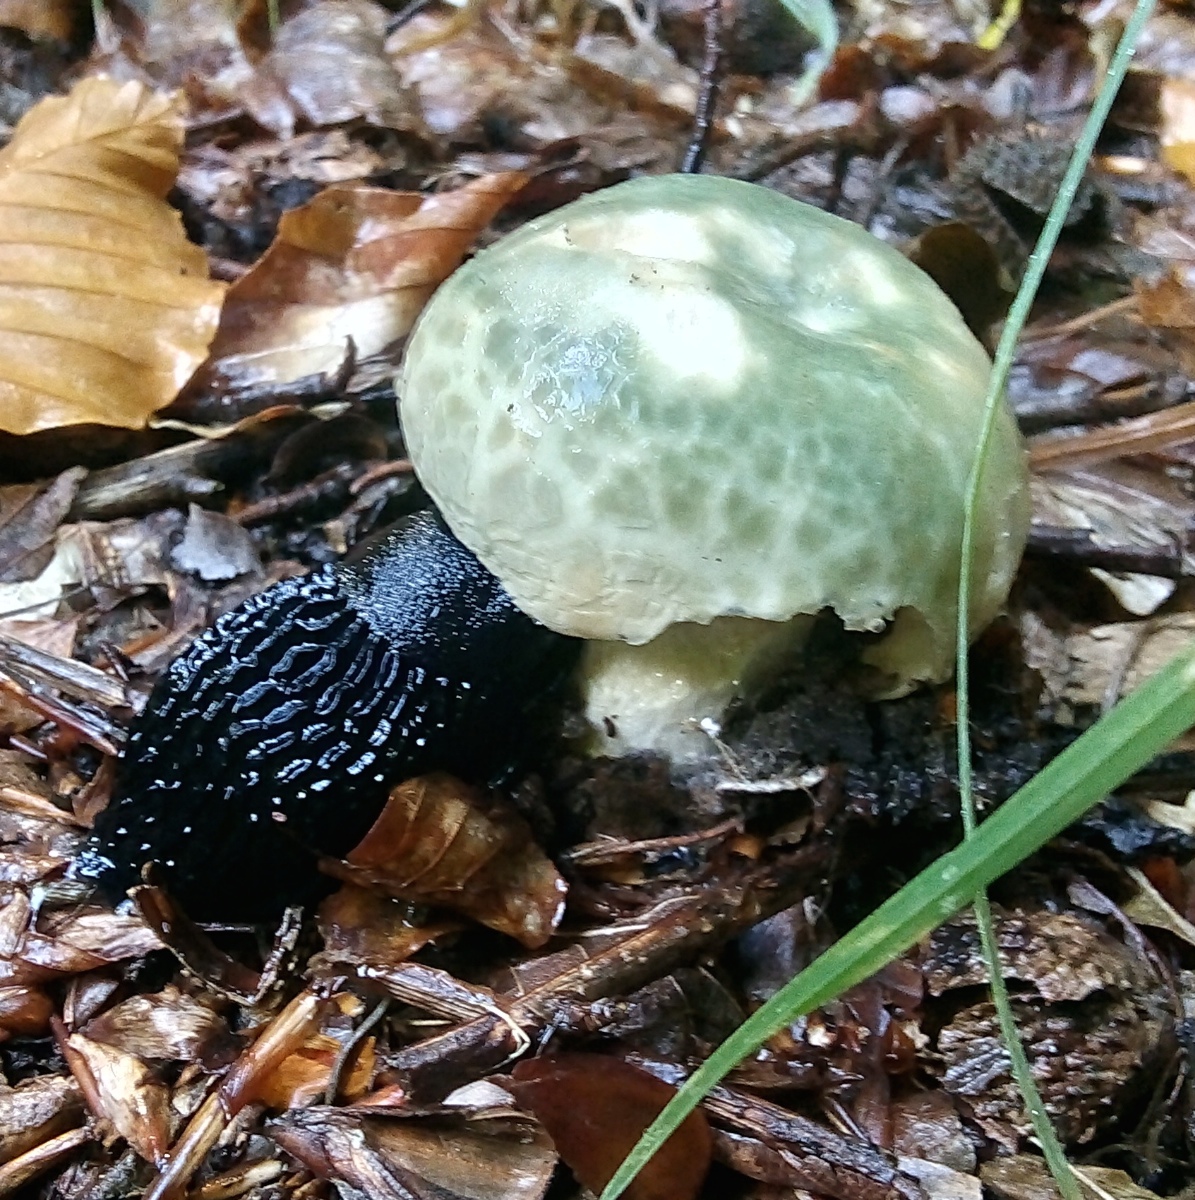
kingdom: Fungi
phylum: Basidiomycota
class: Agaricomycetes
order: Russulales
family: Russulaceae
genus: Russula
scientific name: Russula virescens
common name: spanskgrøn skørhat
